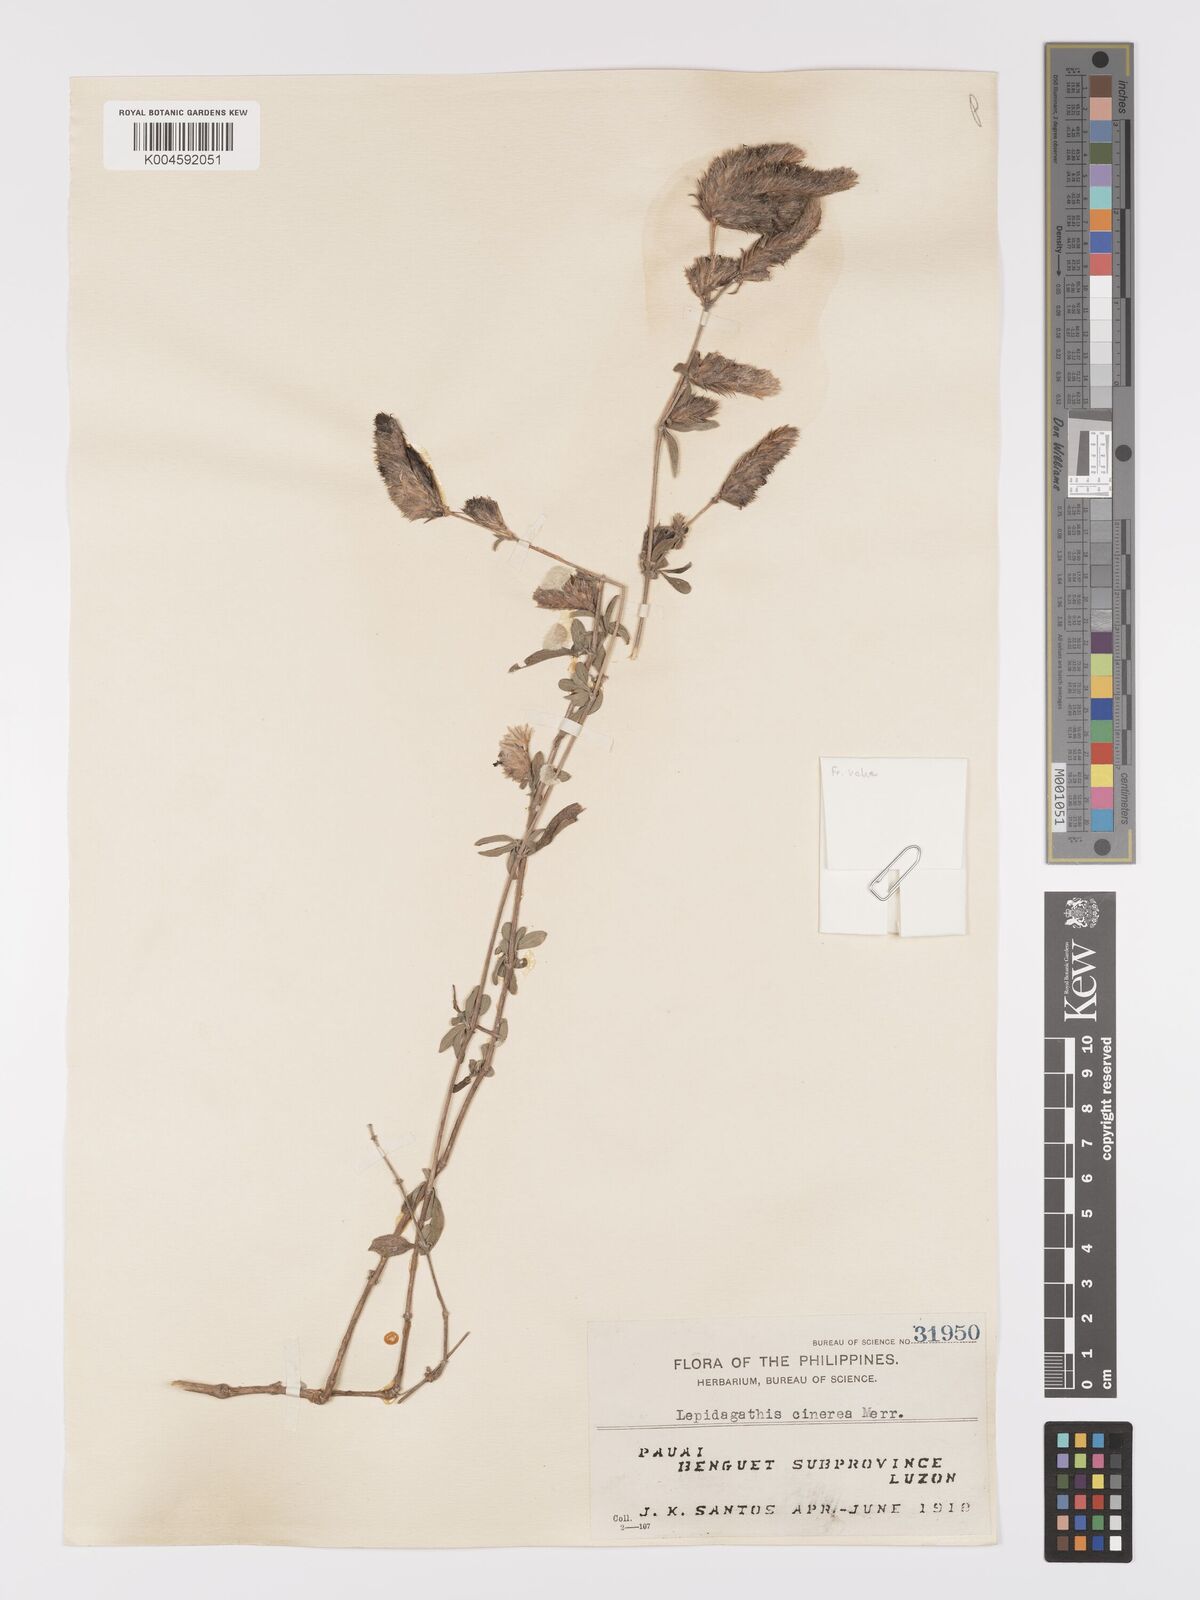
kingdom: Plantae
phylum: Tracheophyta
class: Magnoliopsida
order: Lamiales
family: Acanthaceae
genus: Lepidagathis
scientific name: Lepidagathis cinerea
